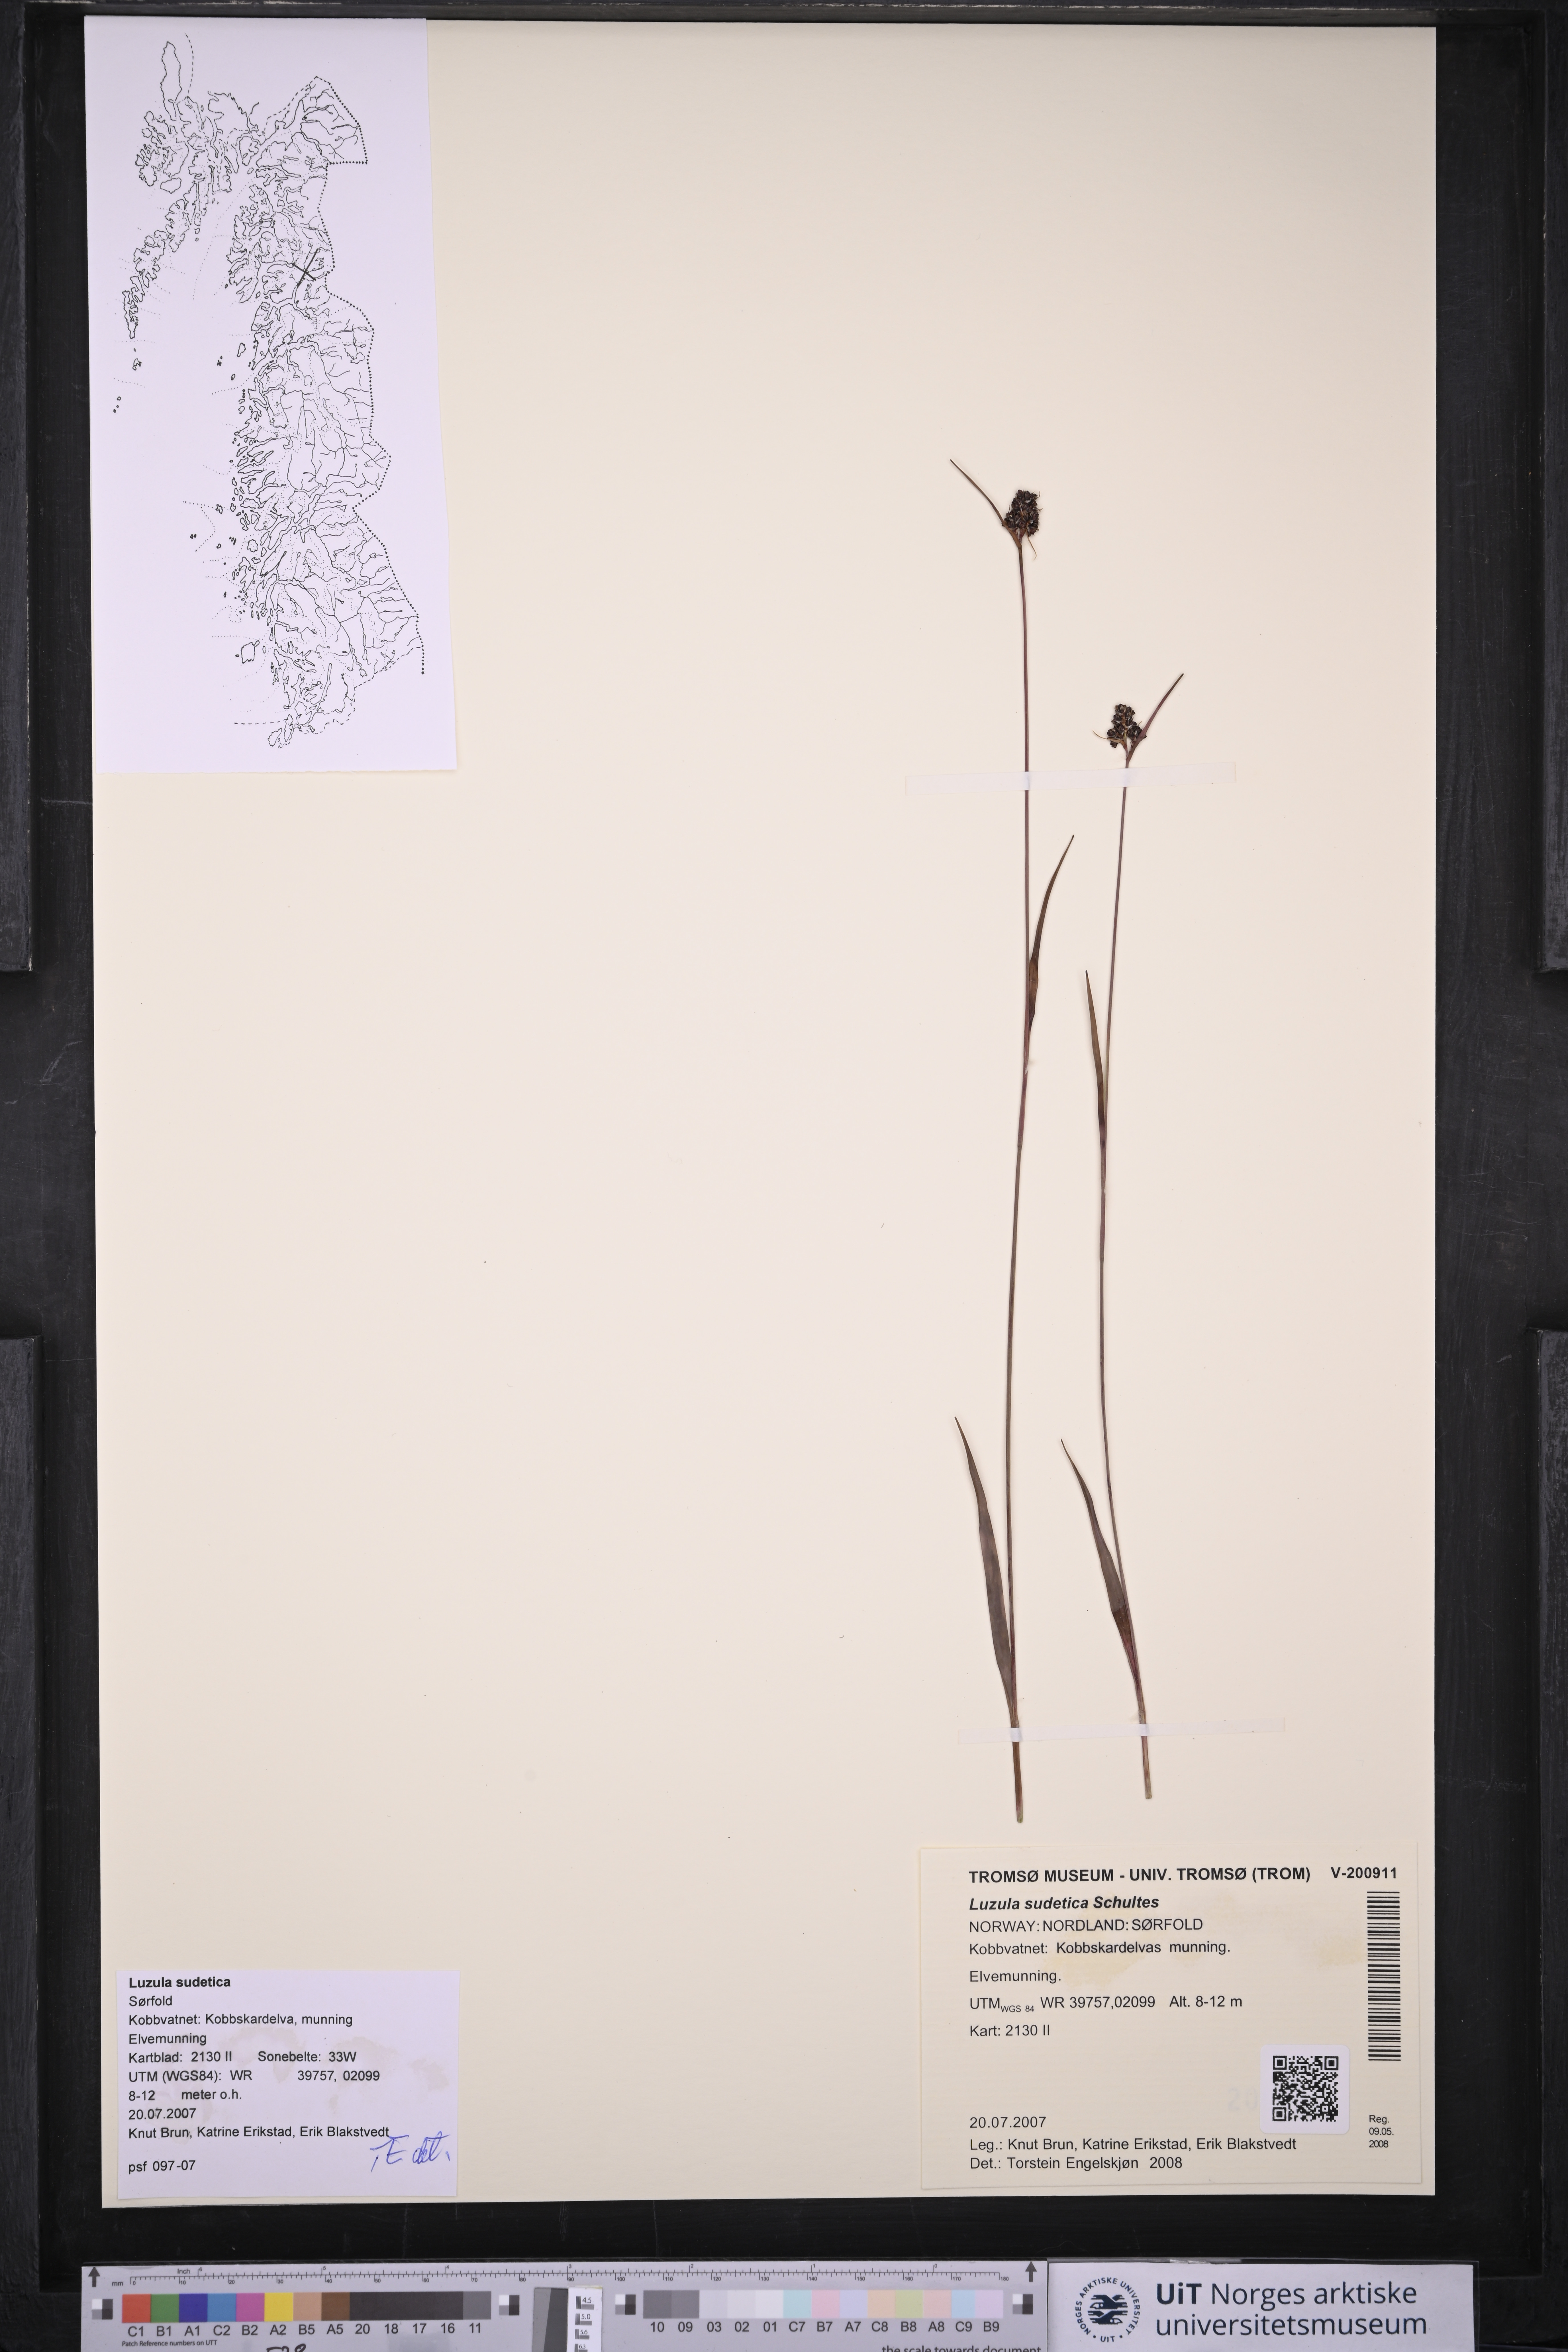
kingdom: Plantae
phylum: Tracheophyta
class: Liliopsida
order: Poales
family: Juncaceae
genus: Luzula
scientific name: Luzula sudetica
